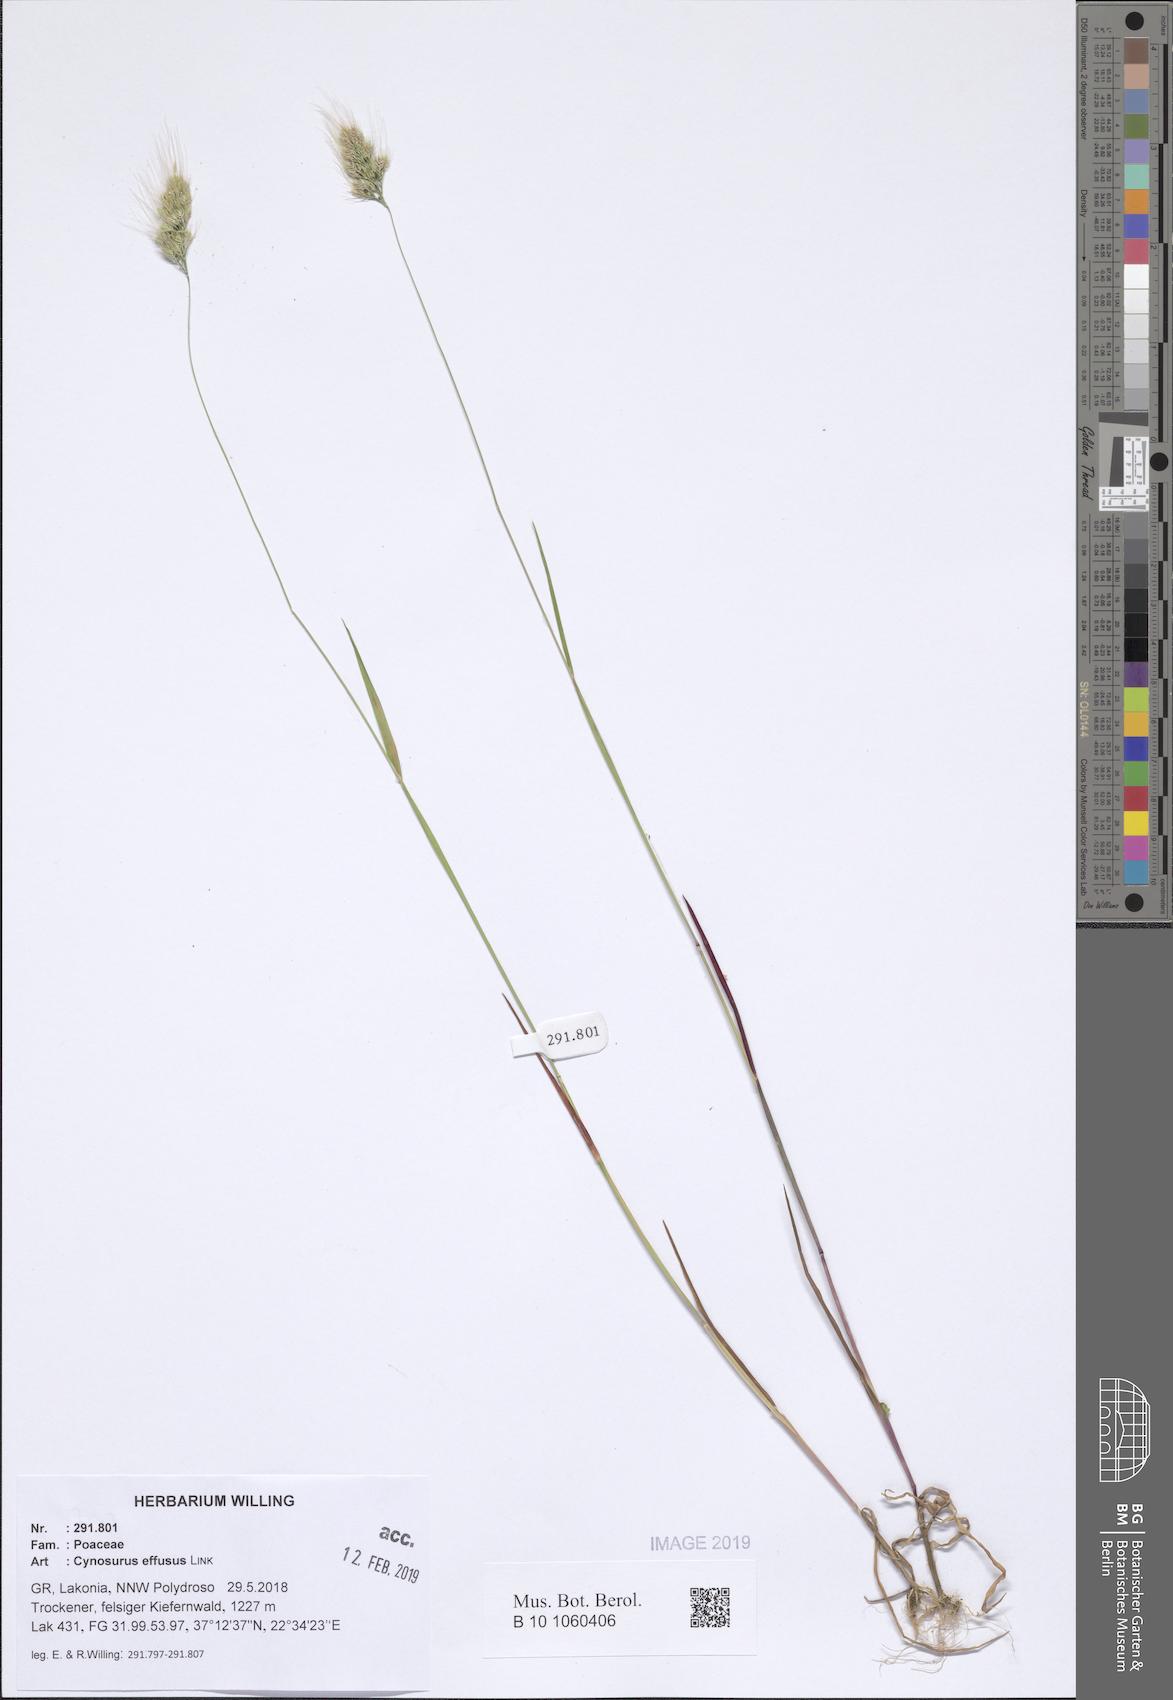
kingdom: Plantae
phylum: Tracheophyta
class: Liliopsida
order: Poales
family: Poaceae
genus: Cynosurus
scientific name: Cynosurus effusus
